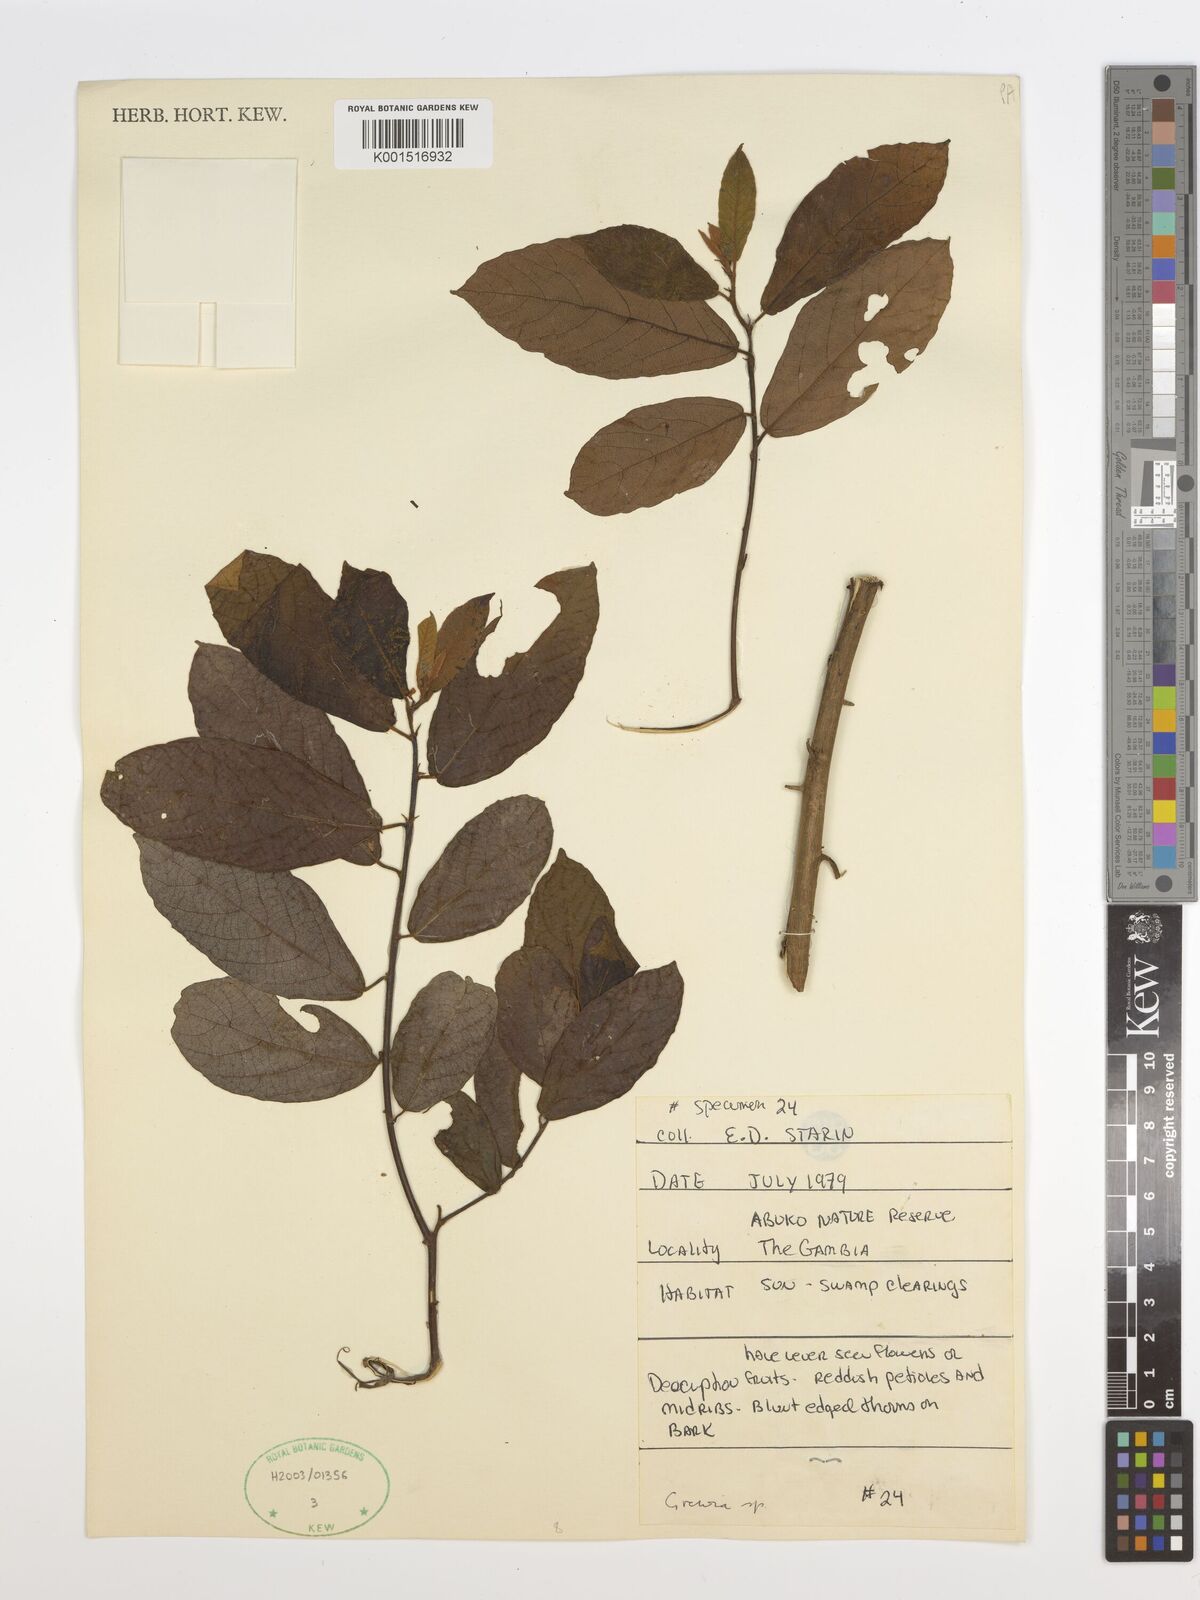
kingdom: Plantae
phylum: Tracheophyta
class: Magnoliopsida
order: Malvales
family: Malvaceae
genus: Grewia
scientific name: Grewia
